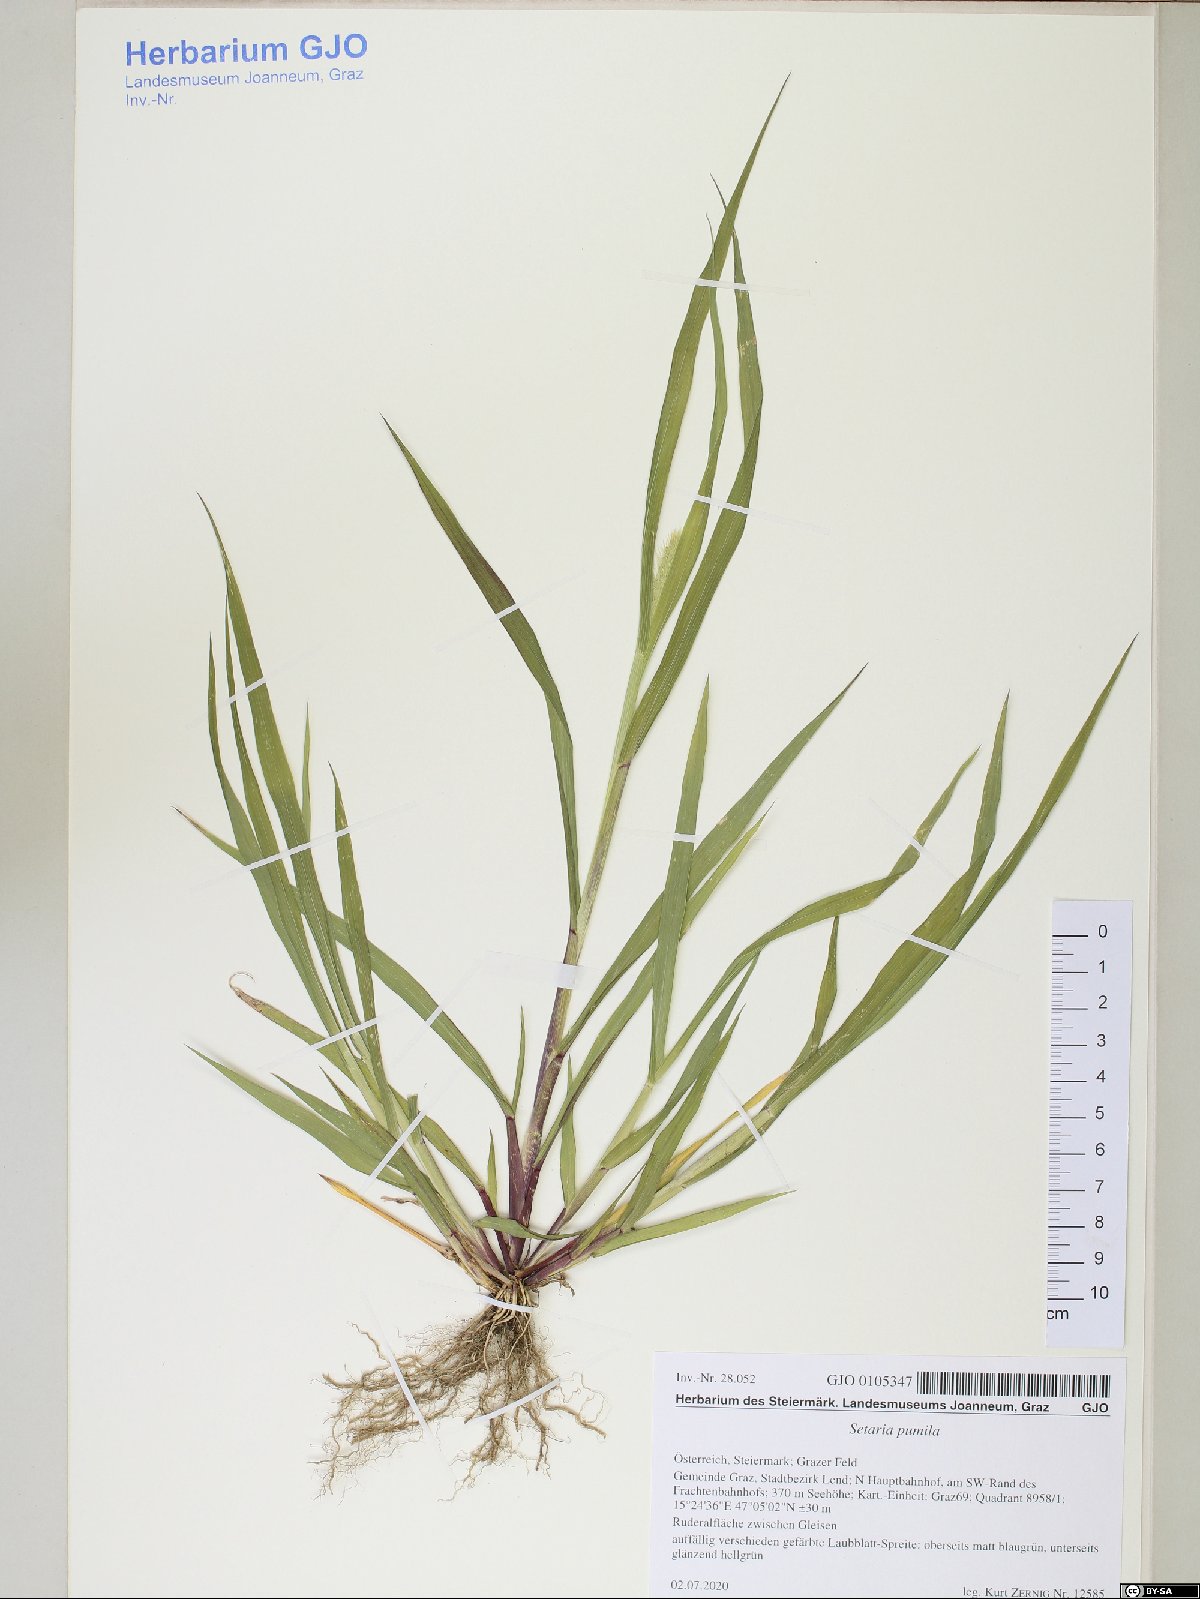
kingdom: Plantae
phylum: Tracheophyta
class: Liliopsida
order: Poales
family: Poaceae
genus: Setaria
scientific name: Setaria pumila
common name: Yellow bristle-grass
